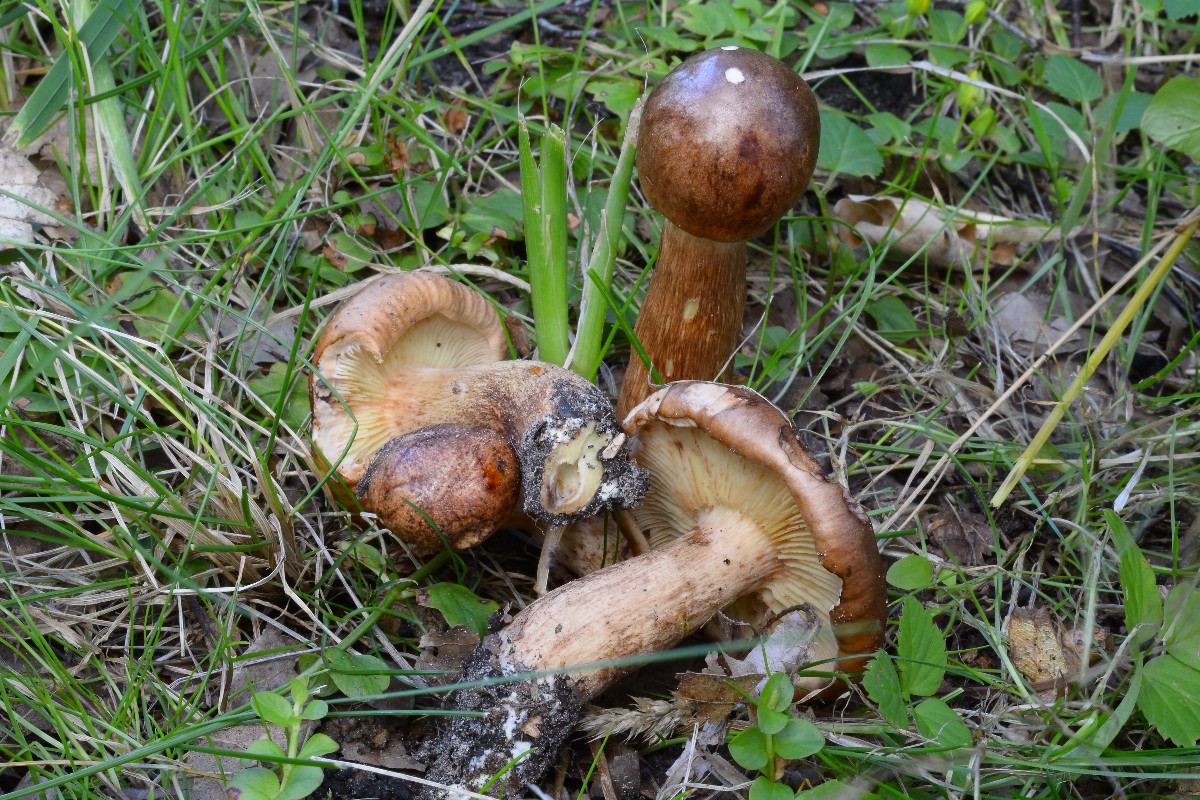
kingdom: Fungi
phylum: Basidiomycota
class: Agaricomycetes
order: Agaricales
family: Tricholomataceae
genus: Tricholoma
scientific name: Tricholoma fulvum
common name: birke-ridderhat
